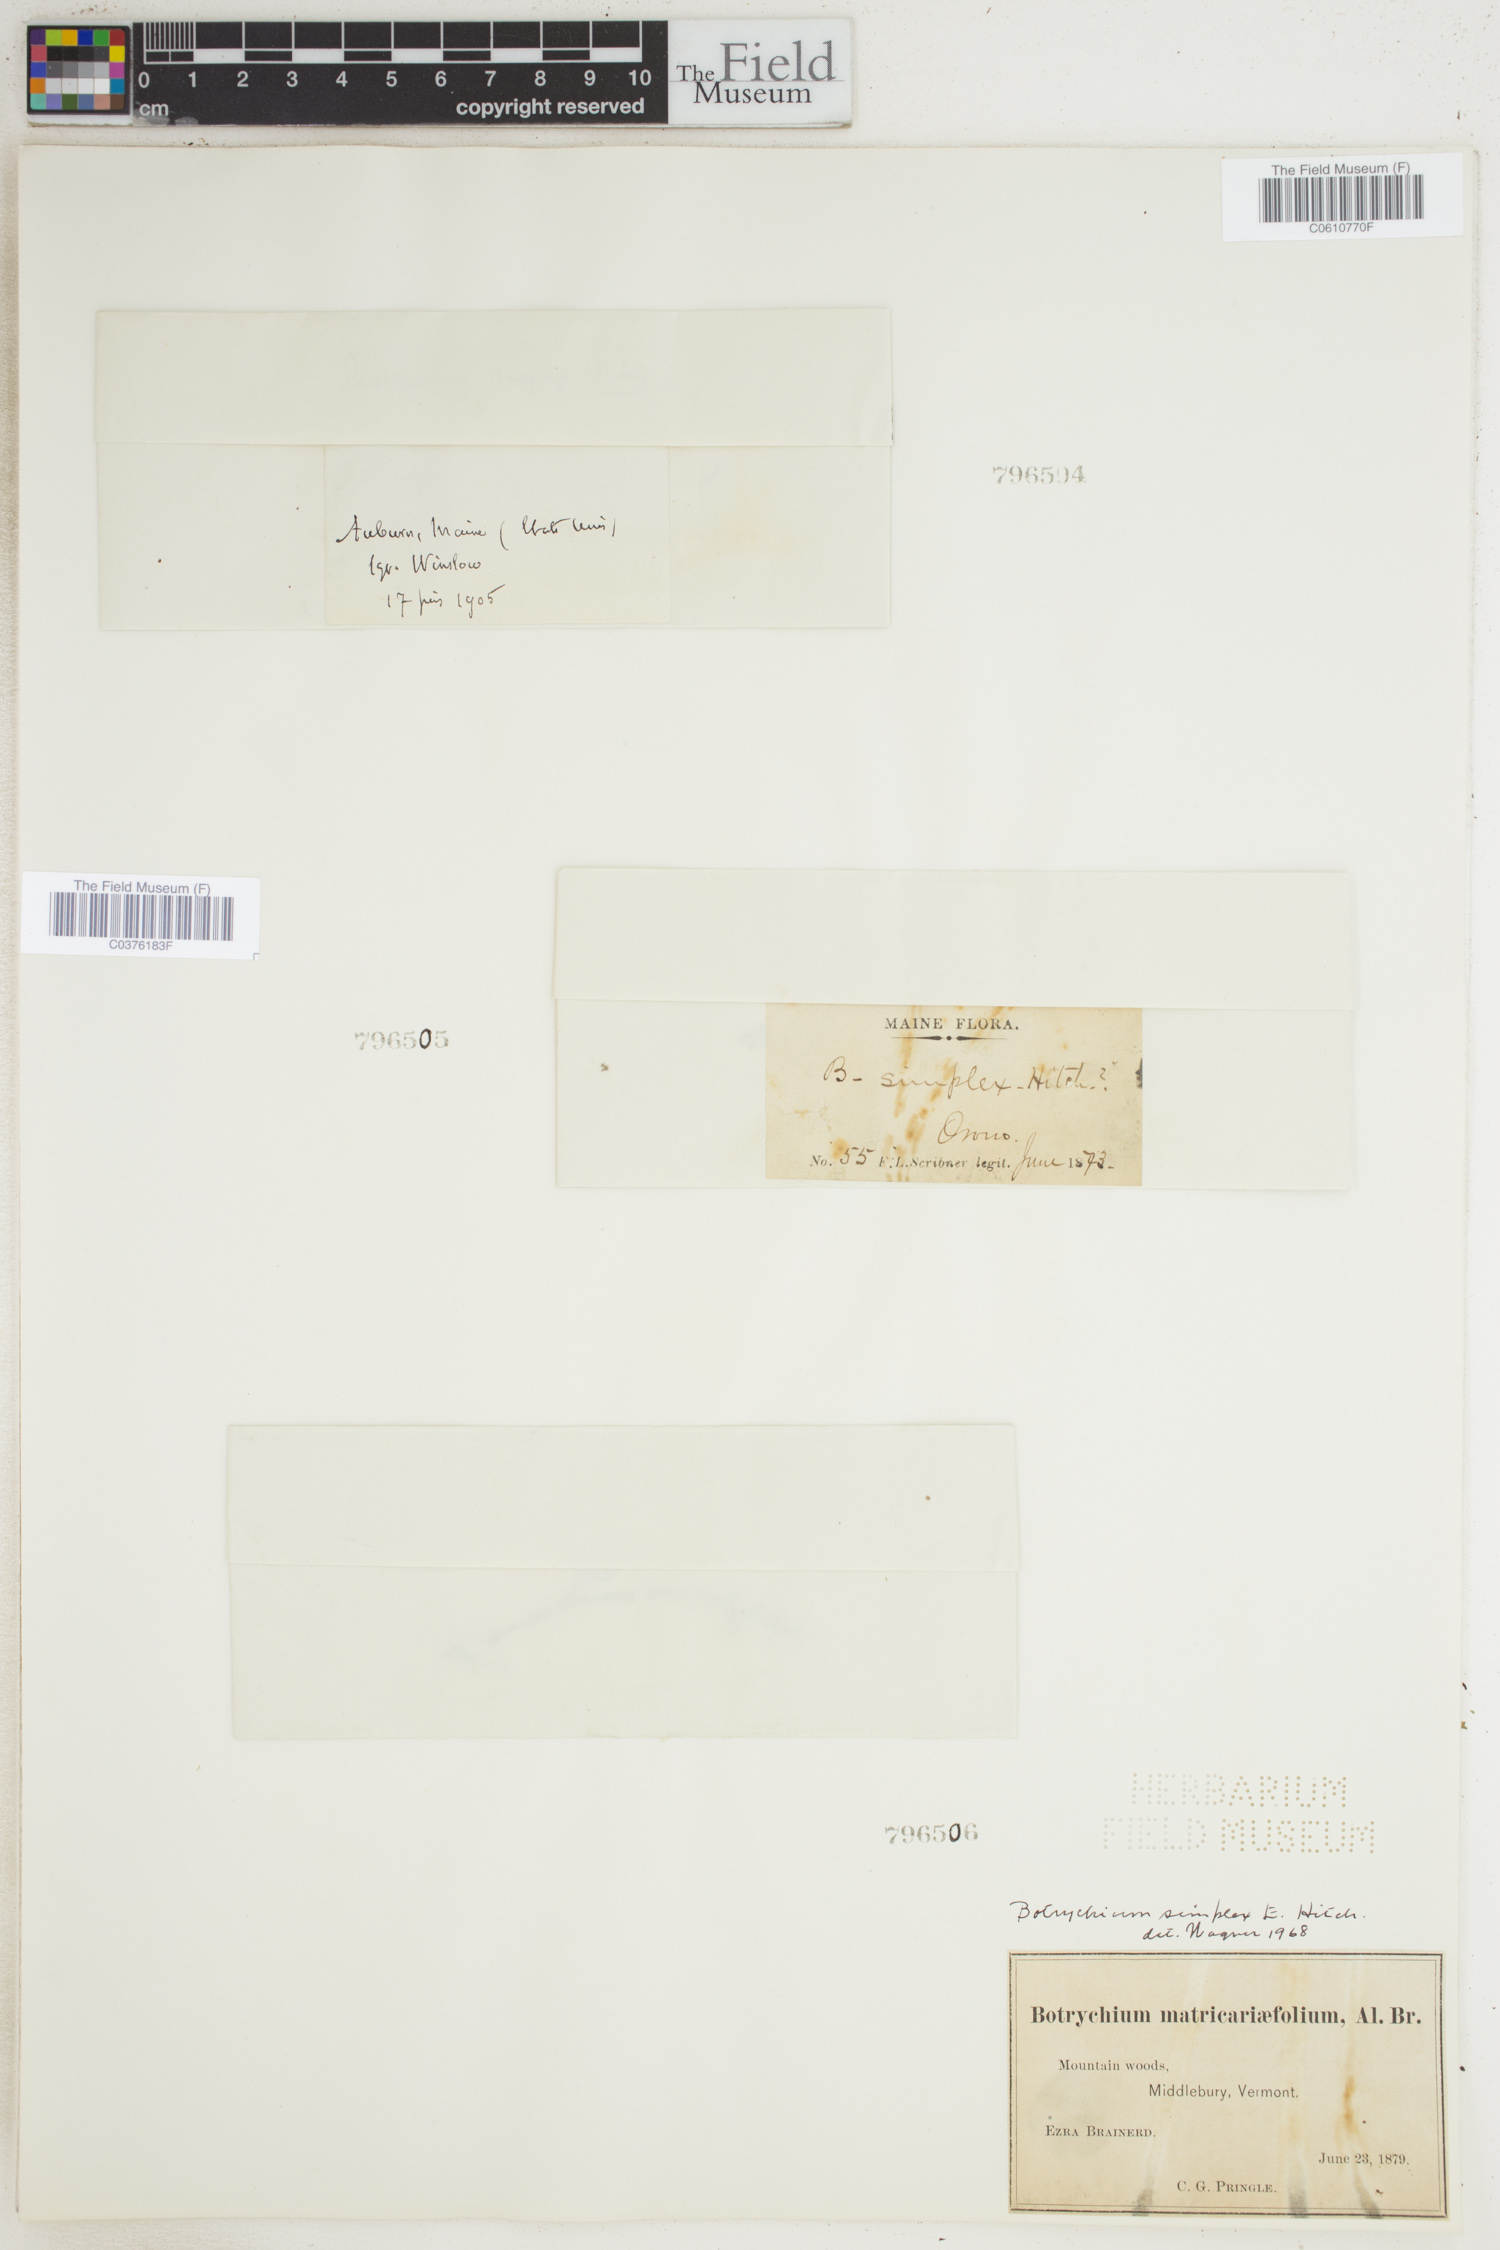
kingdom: Plantae
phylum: Tracheophyta
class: Polypodiopsida
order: Ophioglossales
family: Ophioglossaceae
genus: Botrychium
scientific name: Botrychium simplex
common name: Least moonwort
